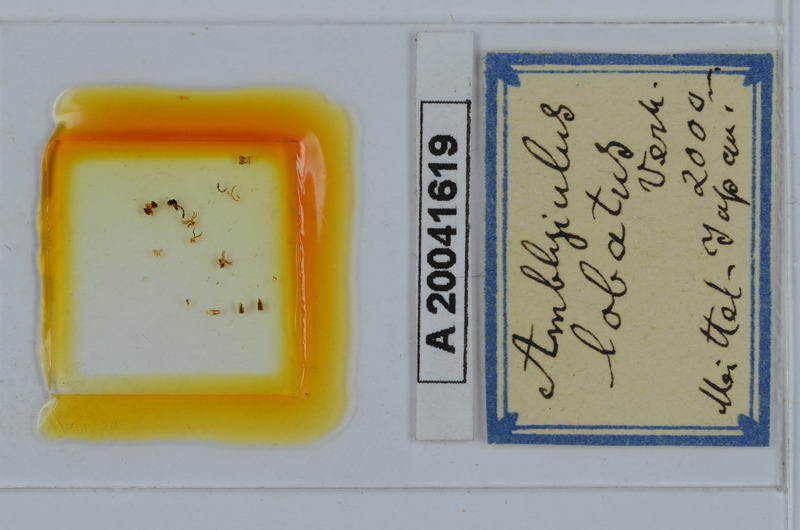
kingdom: Animalia
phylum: Arthropoda
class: Diplopoda
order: Julida
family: Julidae
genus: Japanioiulus
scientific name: Japanioiulus lobatus
